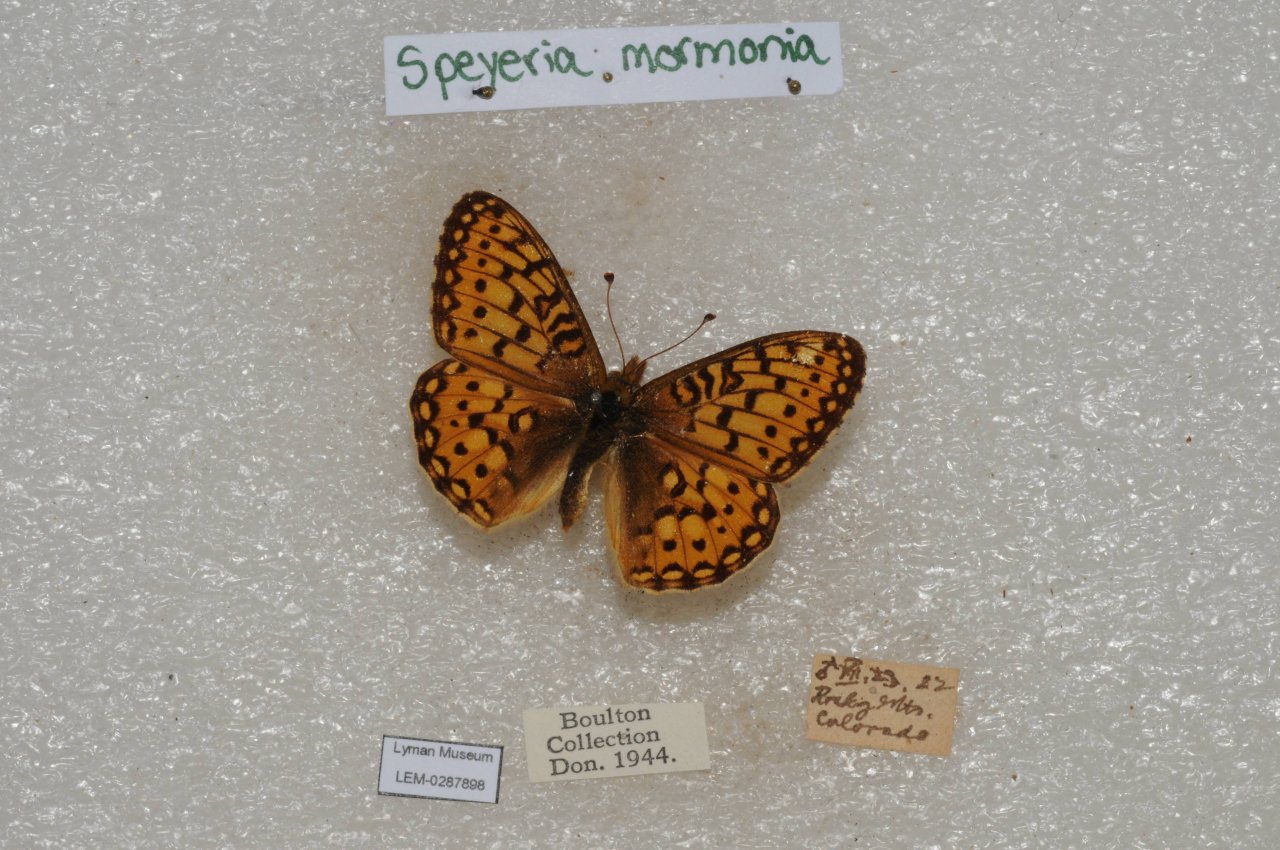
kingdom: Animalia
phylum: Arthropoda
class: Insecta
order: Lepidoptera
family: Nymphalidae
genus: Speyeria
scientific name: Speyeria mormonia
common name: Mormon Fritillary
